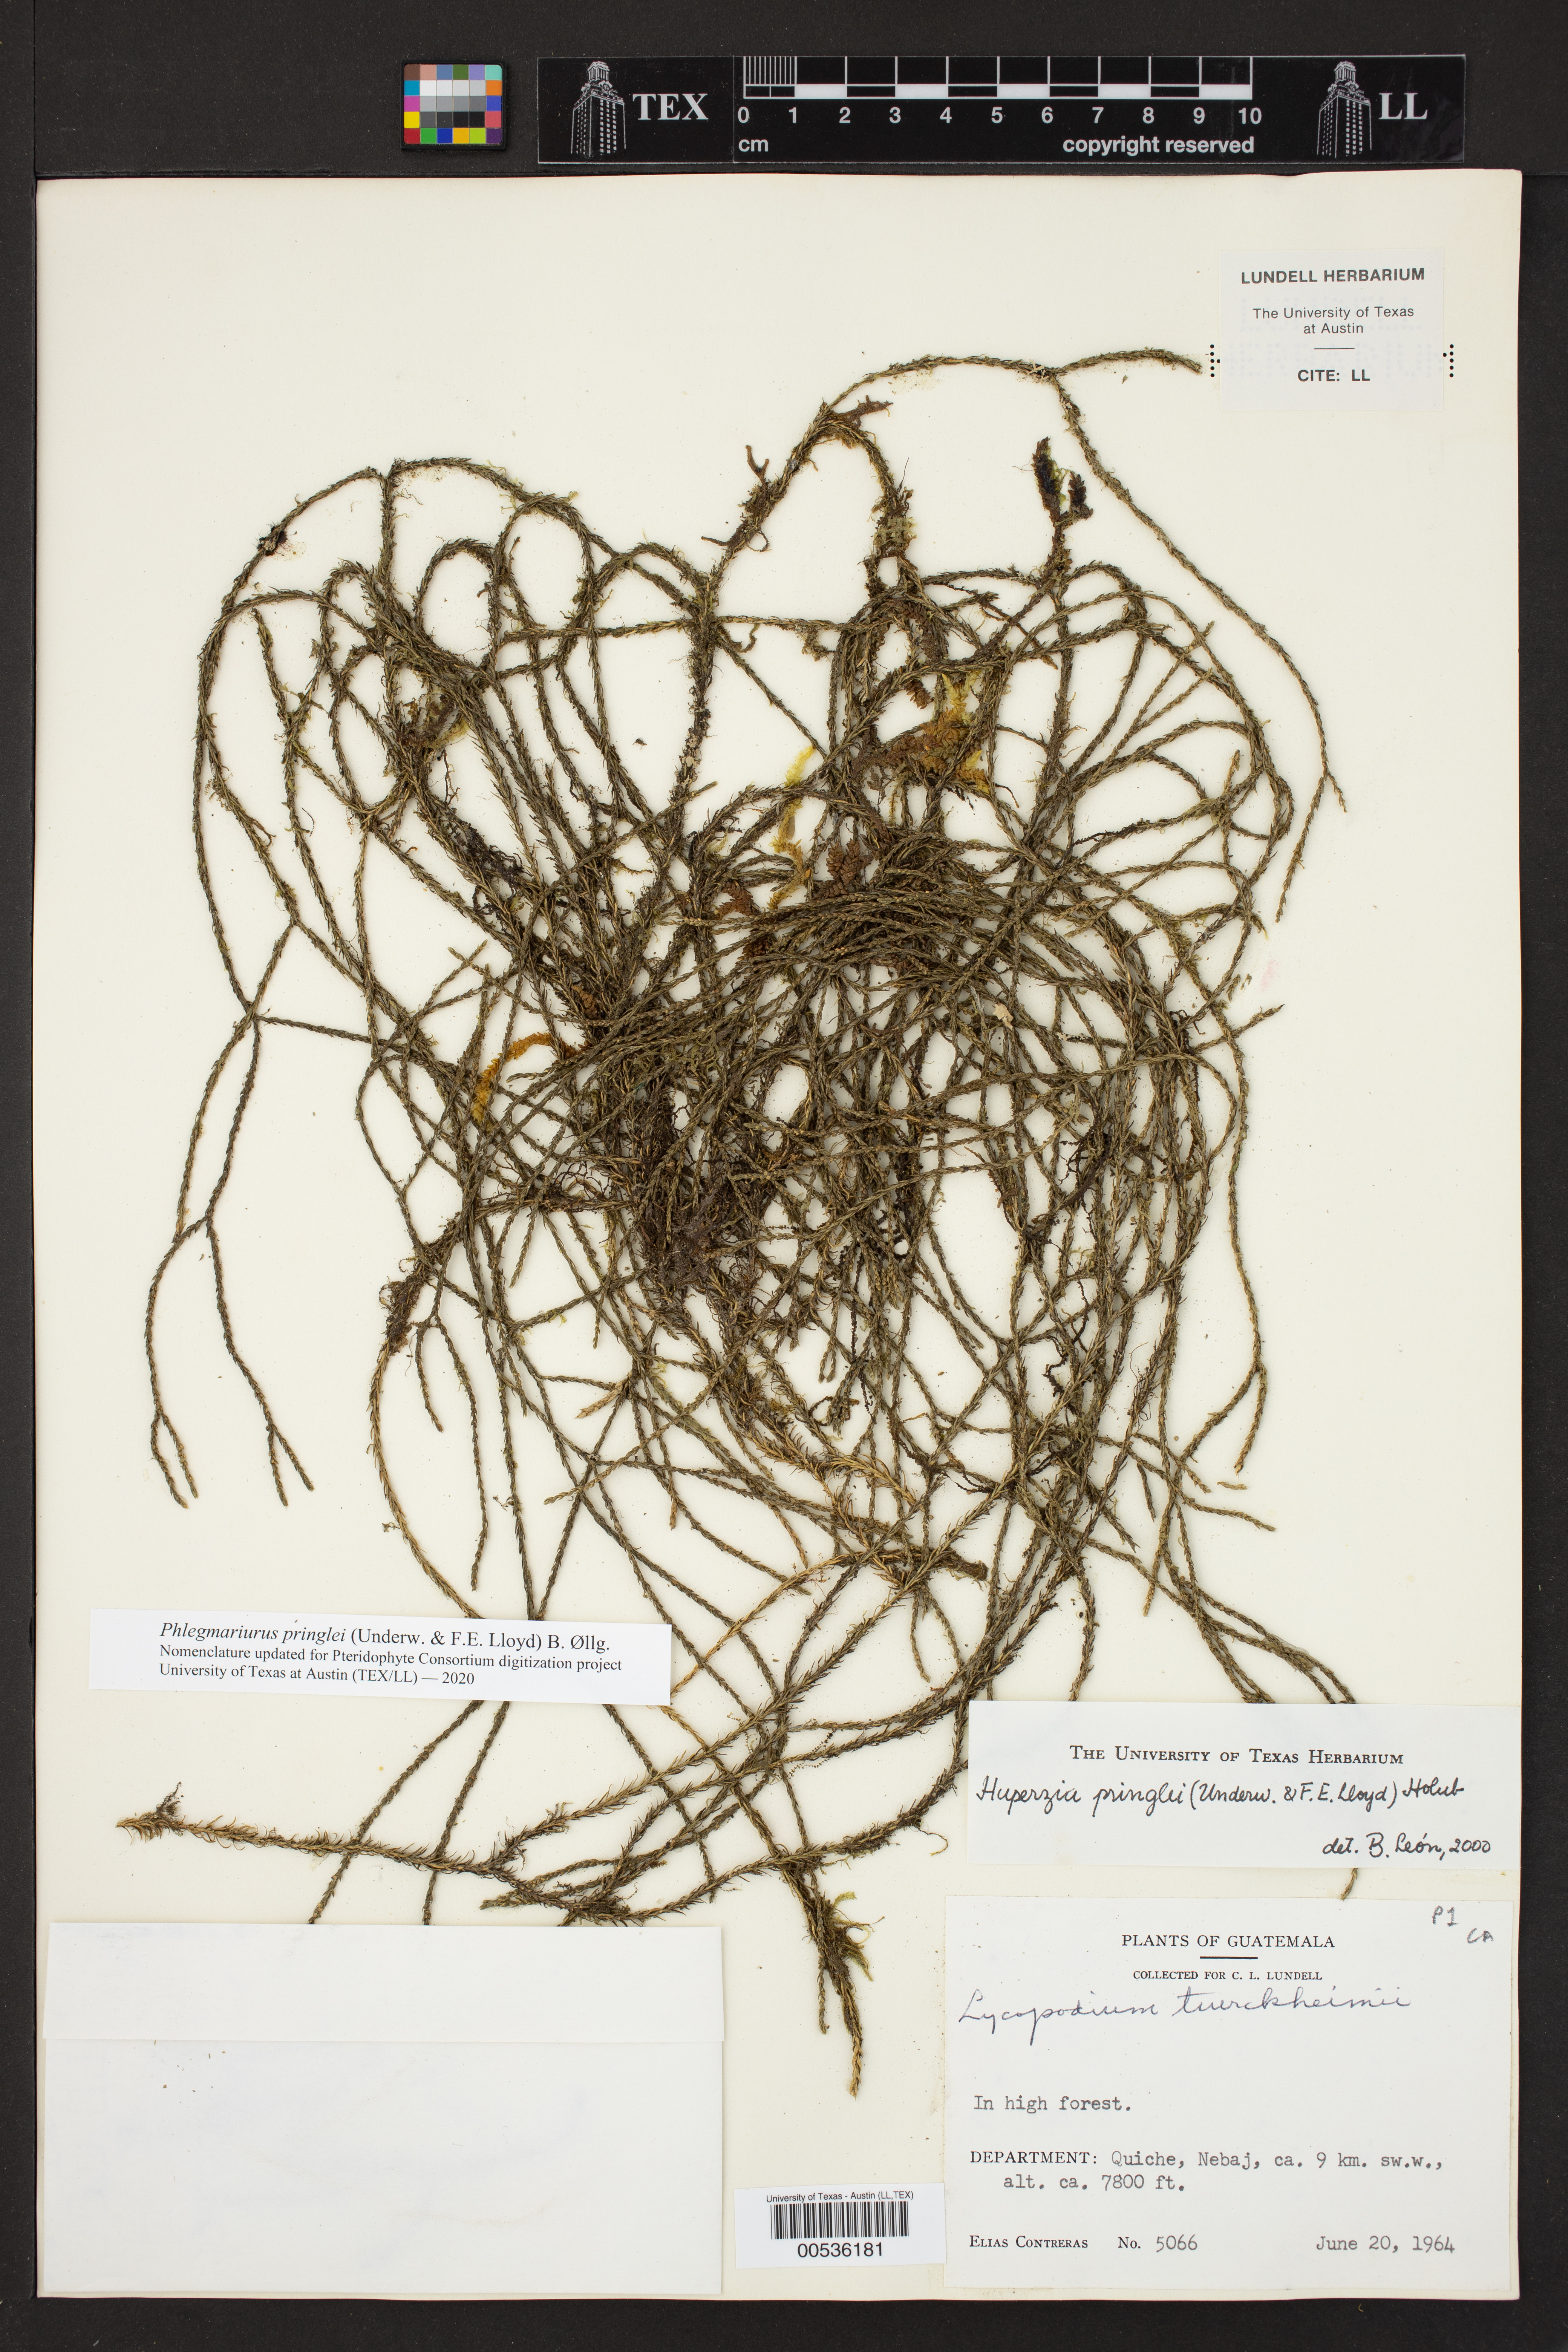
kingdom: Plantae
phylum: Tracheophyta
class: Lycopodiopsida
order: Lycopodiales
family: Lycopodiaceae
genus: Phlegmariurus
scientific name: Phlegmariurus pringlei
